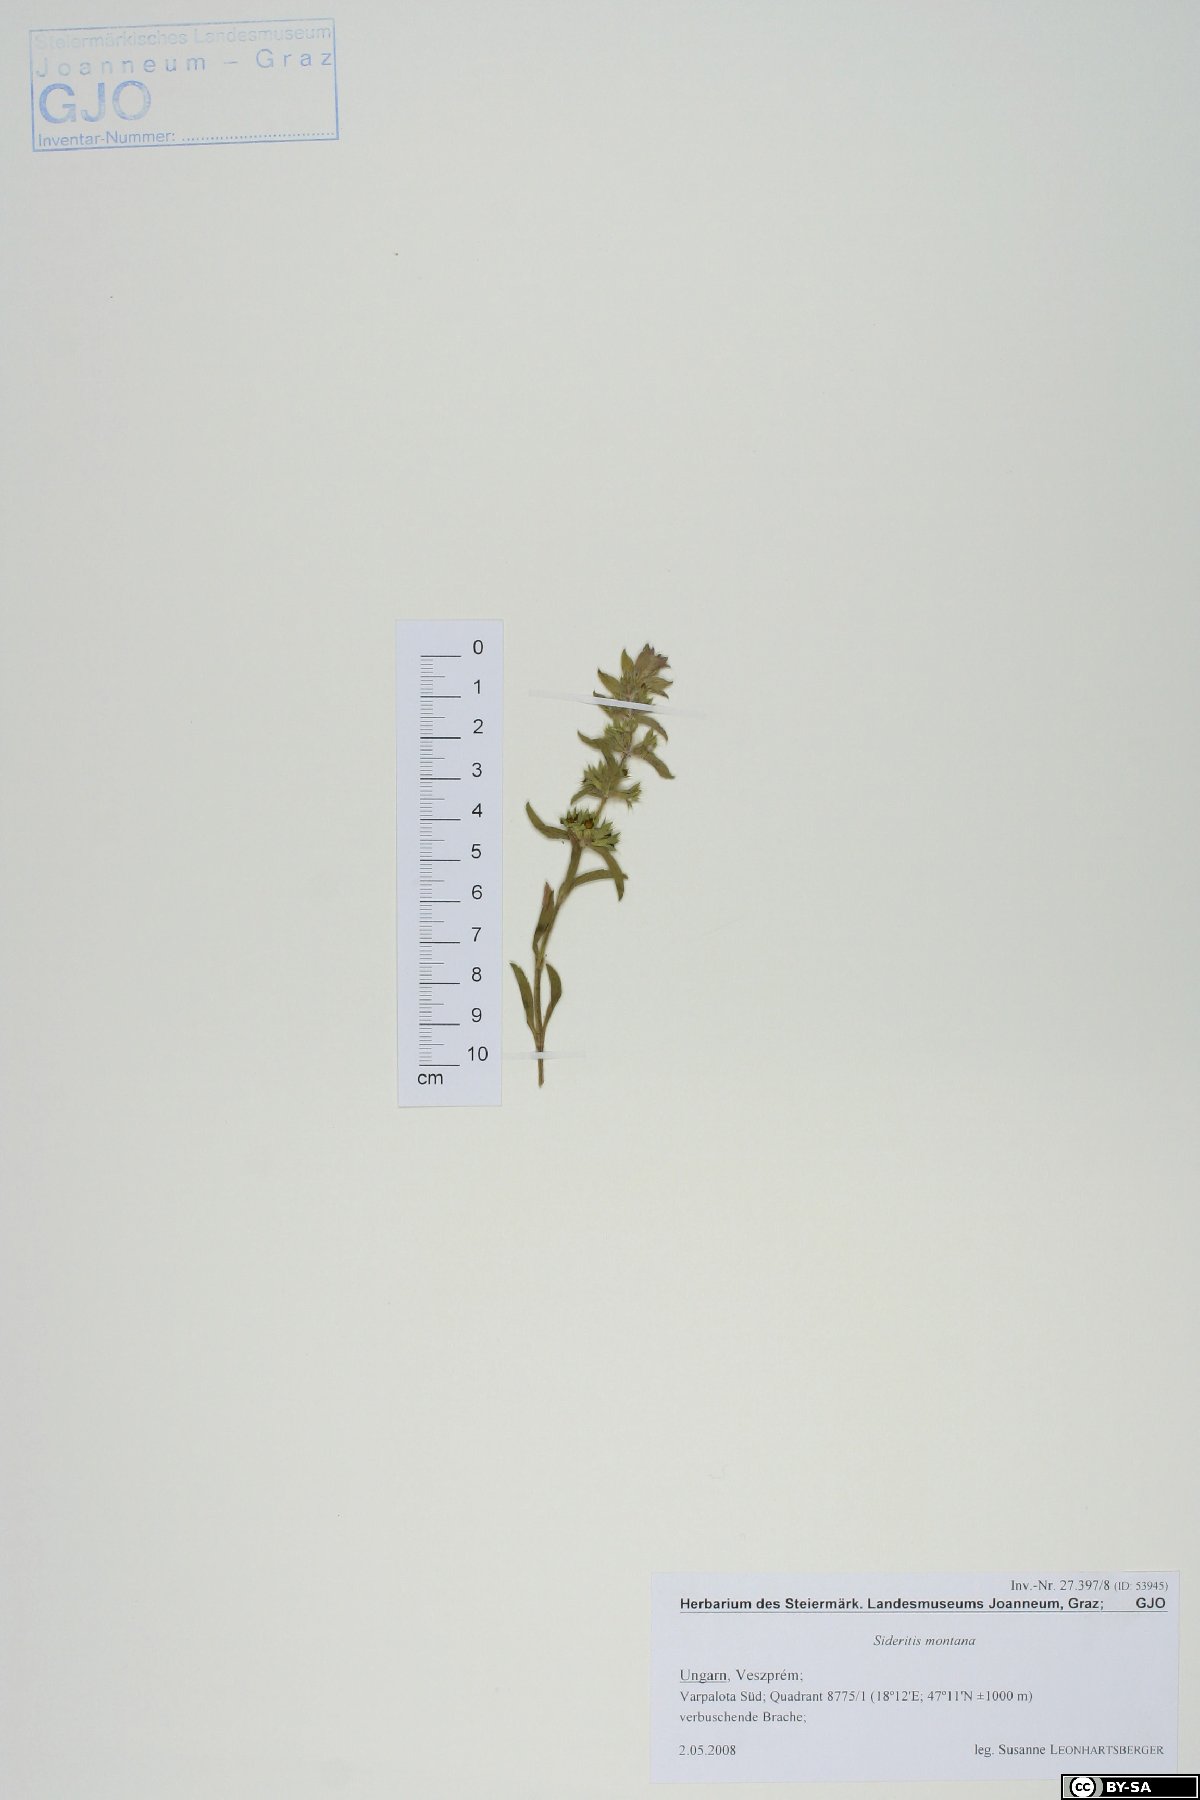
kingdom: Plantae
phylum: Tracheophyta
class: Magnoliopsida
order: Lamiales
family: Lamiaceae
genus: Sideritis
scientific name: Sideritis montana
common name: Mountain ironwort
